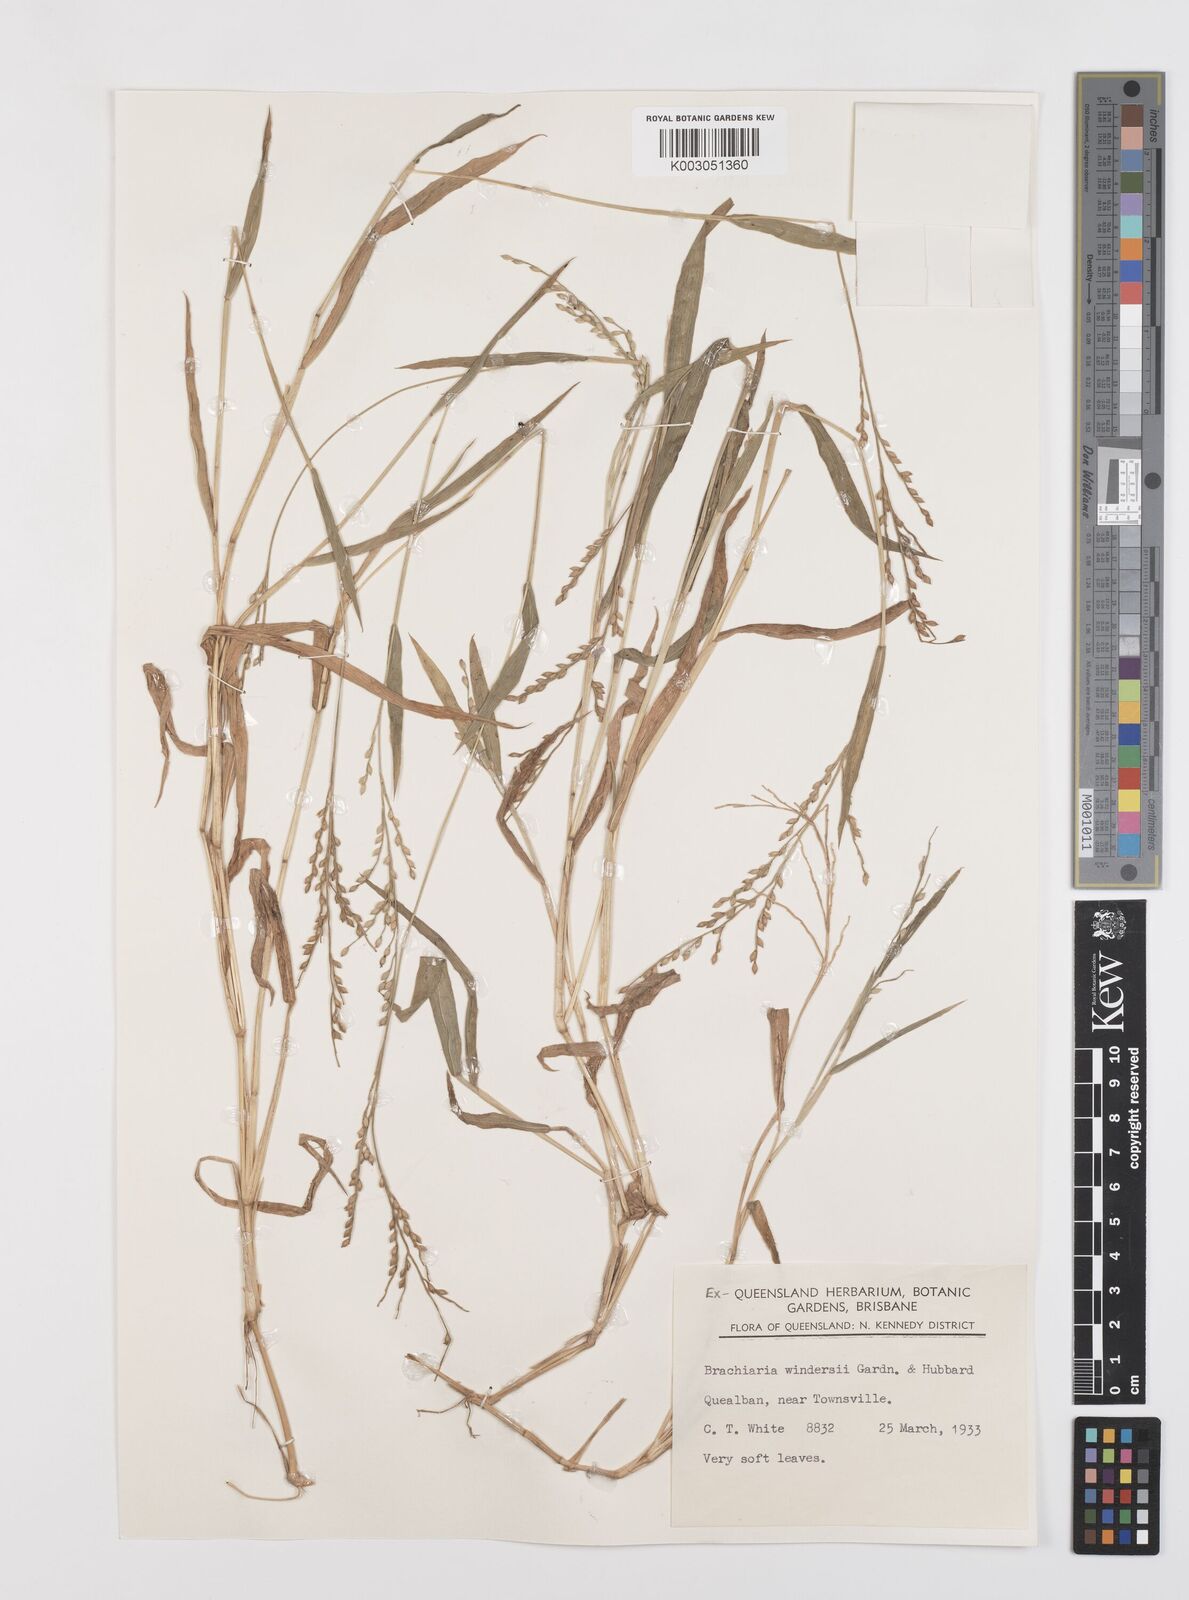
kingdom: Plantae
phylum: Tracheophyta
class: Liliopsida
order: Poales
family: Poaceae
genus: Urochloa
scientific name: Urochloa whiteana
